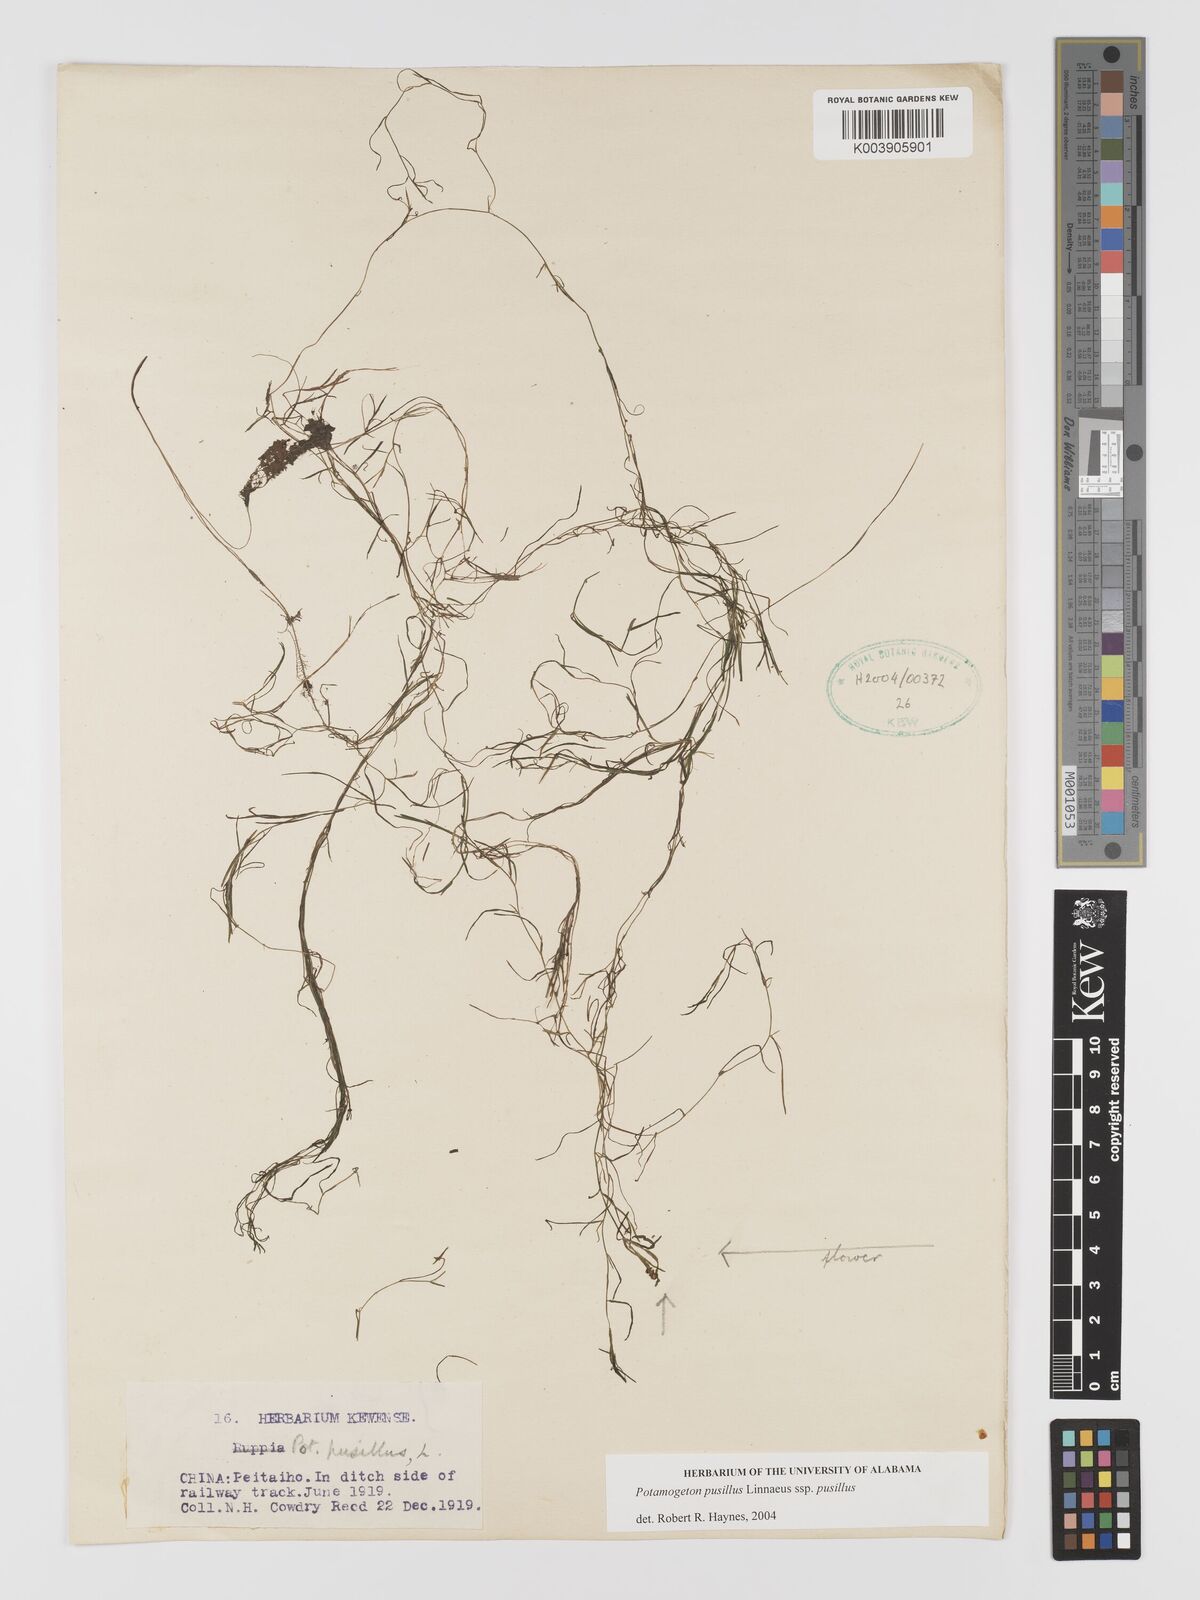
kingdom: Plantae
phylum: Tracheophyta
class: Liliopsida
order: Alismatales
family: Potamogetonaceae
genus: Potamogeton
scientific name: Potamogeton pusillus
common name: Lesser pondweed
